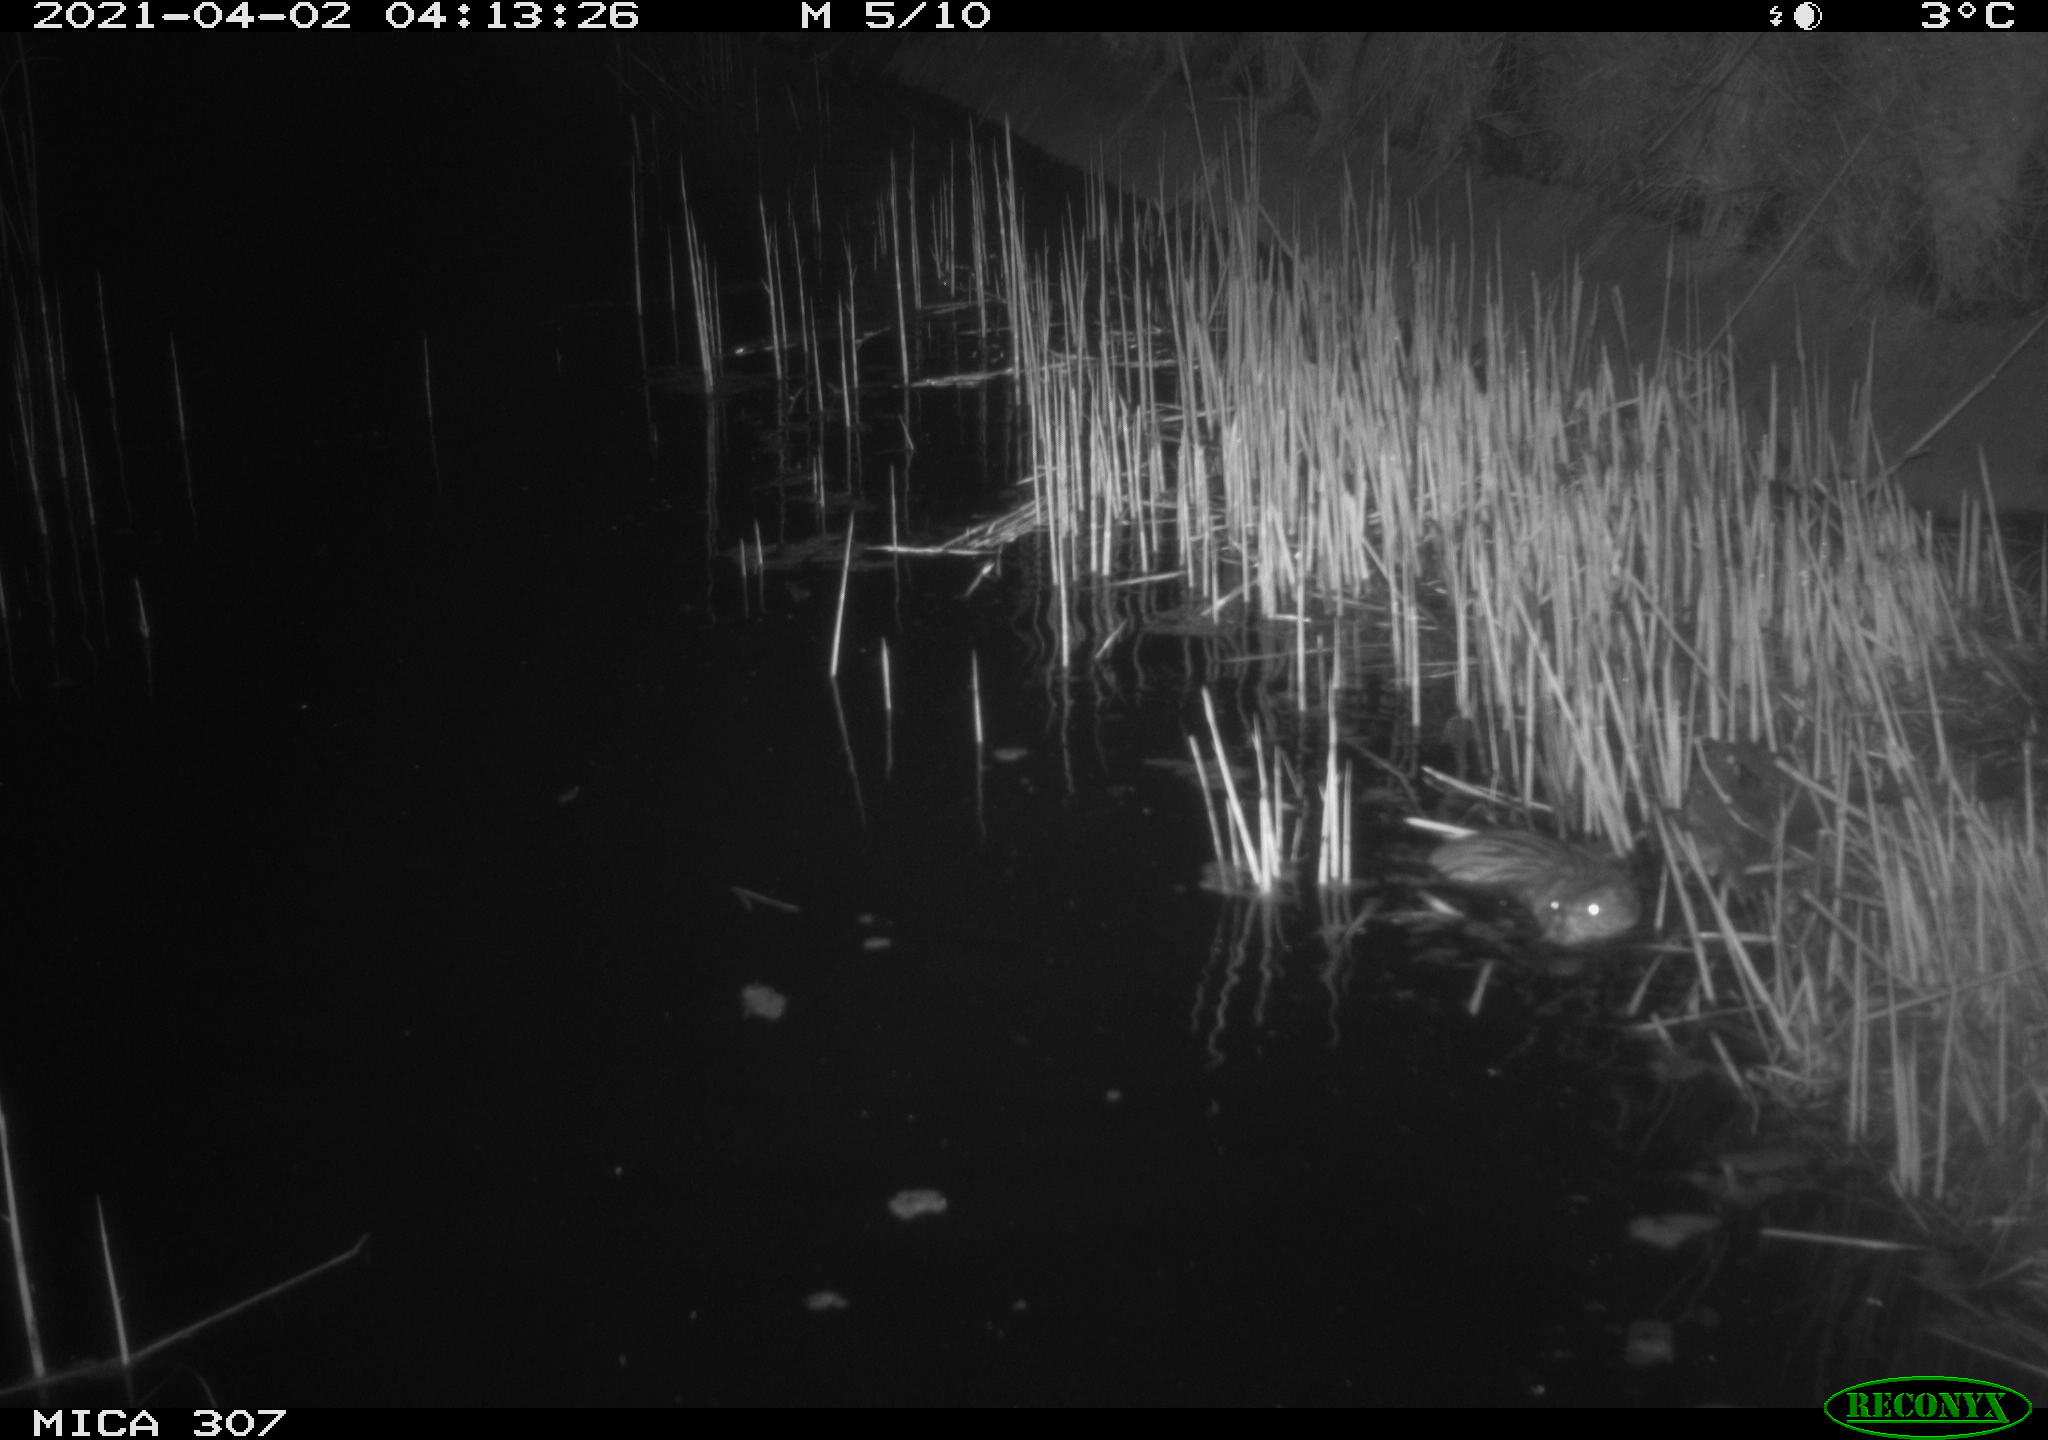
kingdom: Animalia
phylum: Chordata
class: Mammalia
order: Rodentia
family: Cricetidae
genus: Ondatra
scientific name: Ondatra zibethicus
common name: Muskrat
